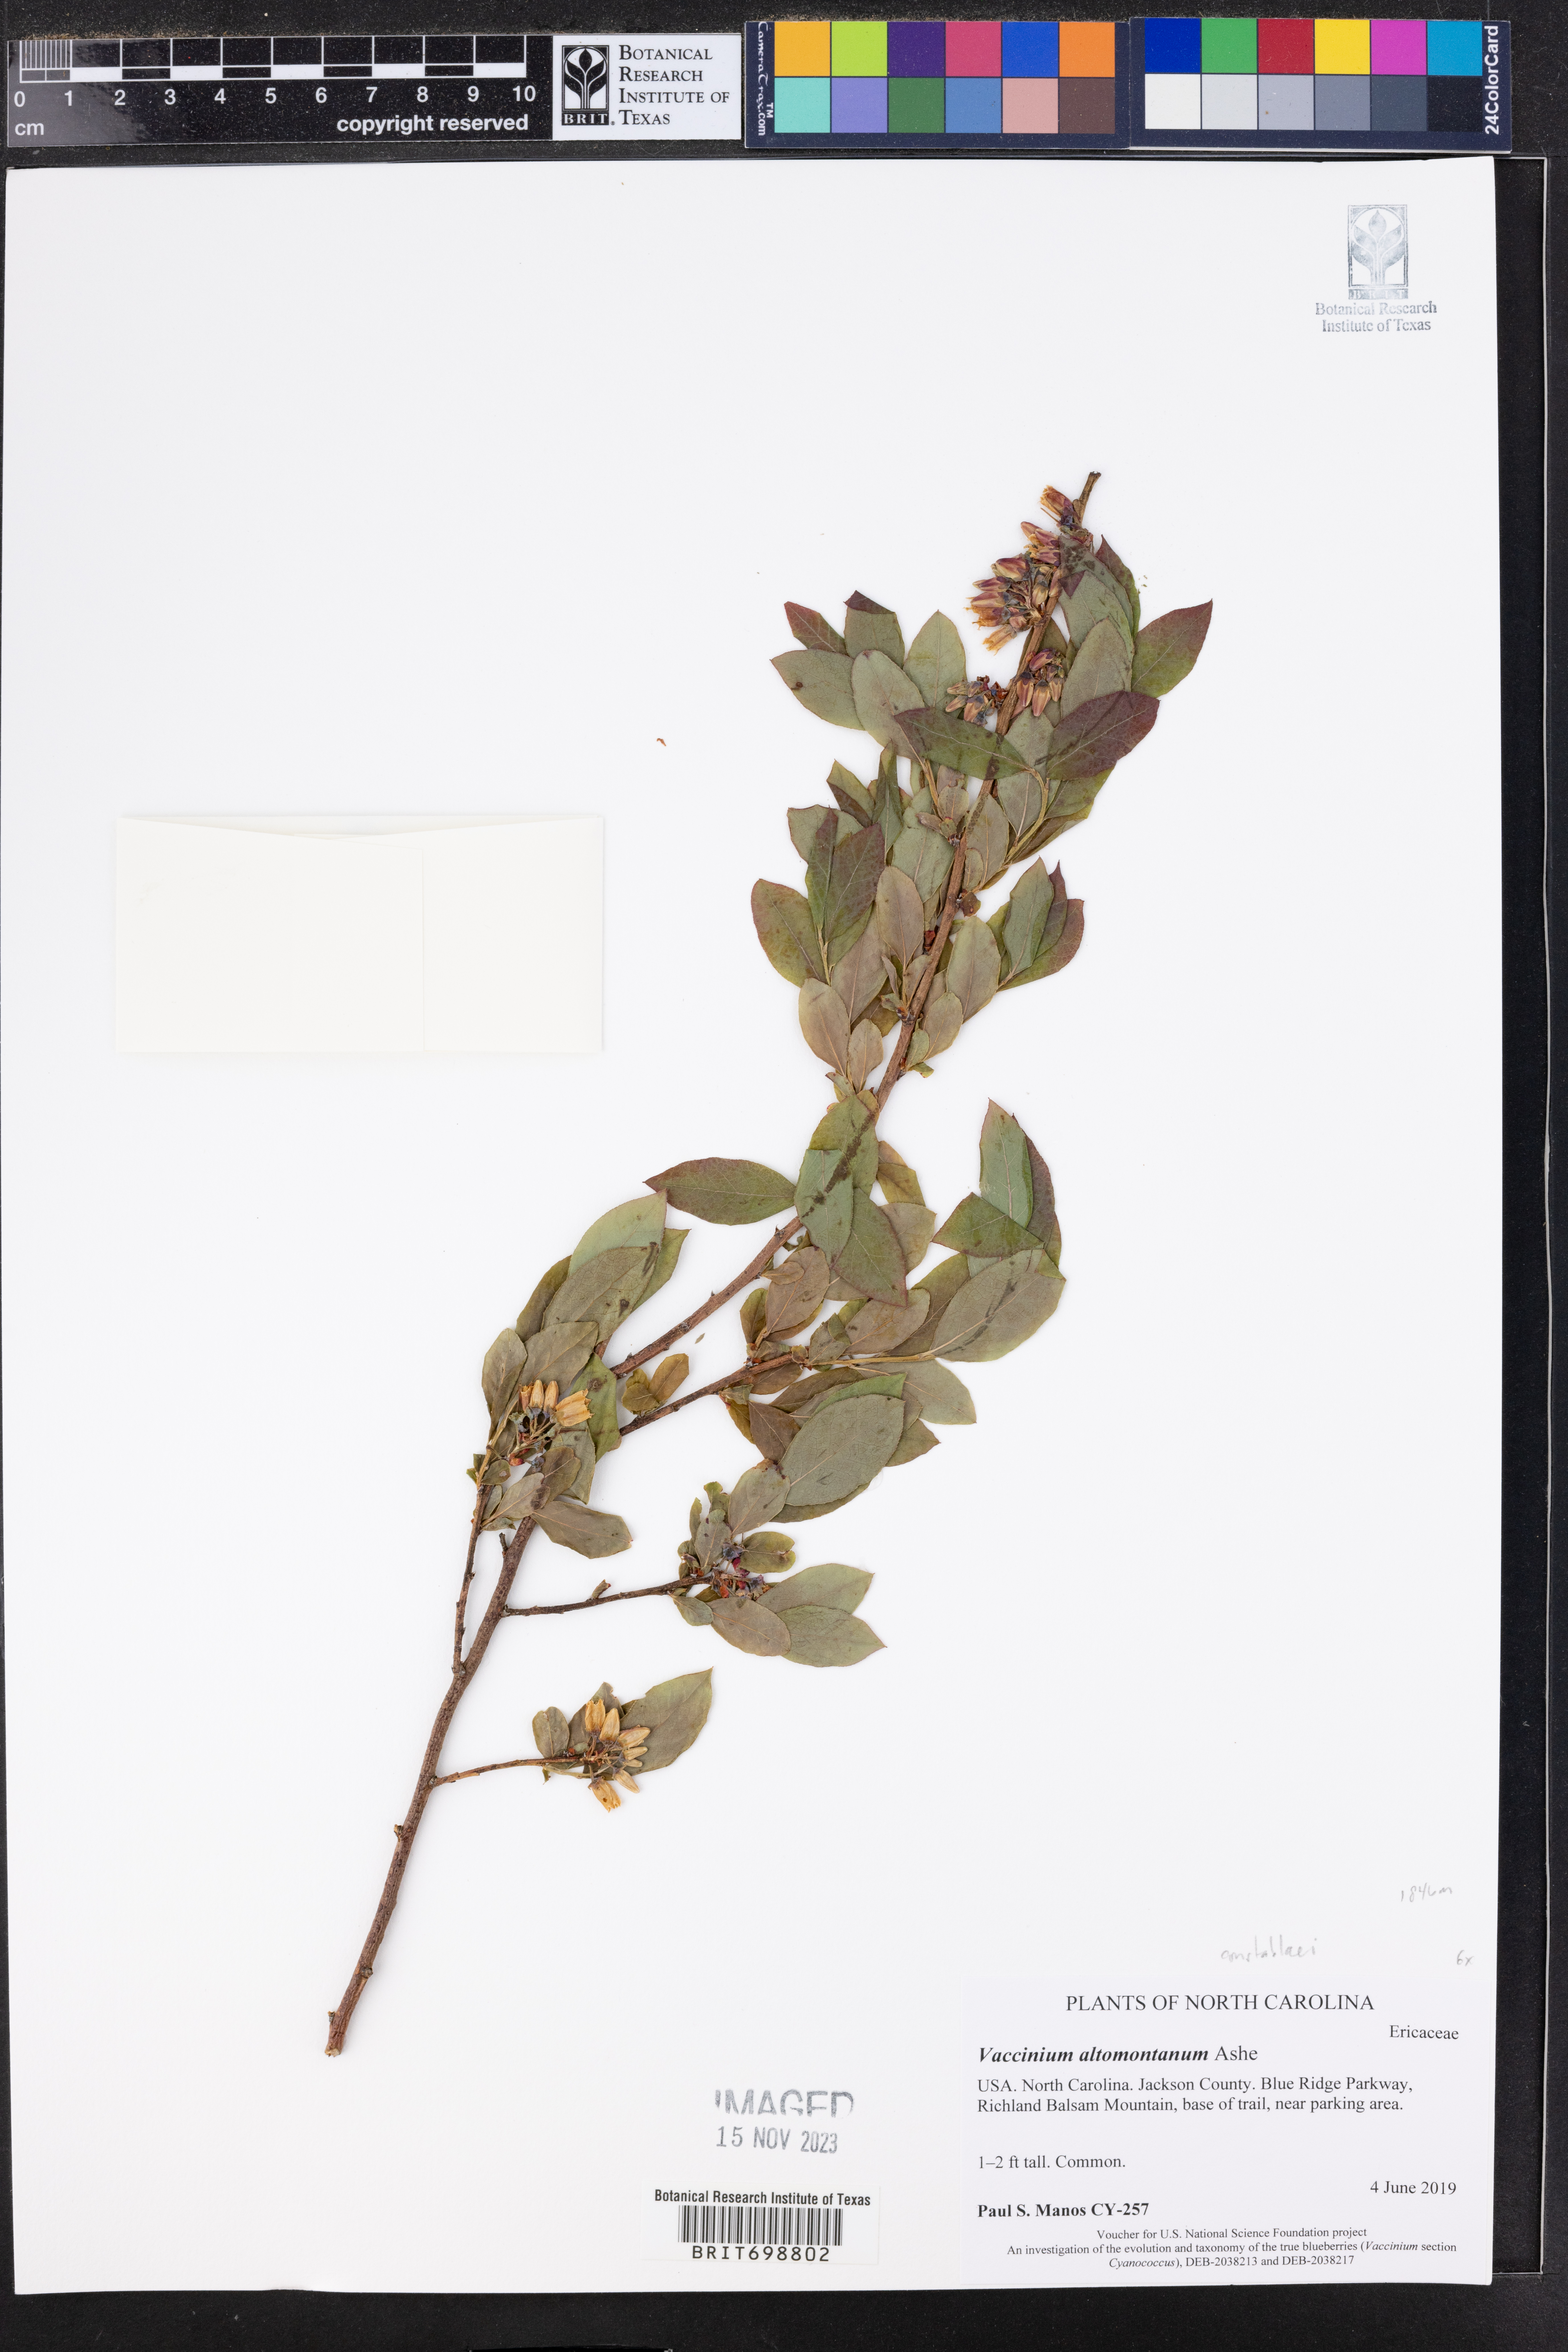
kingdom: Plantae
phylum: Tracheophyta
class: Magnoliopsida
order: Ericales
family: Ericaceae
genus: Vaccinium
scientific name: Vaccinium pallidum
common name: Blue ridge blueberry
